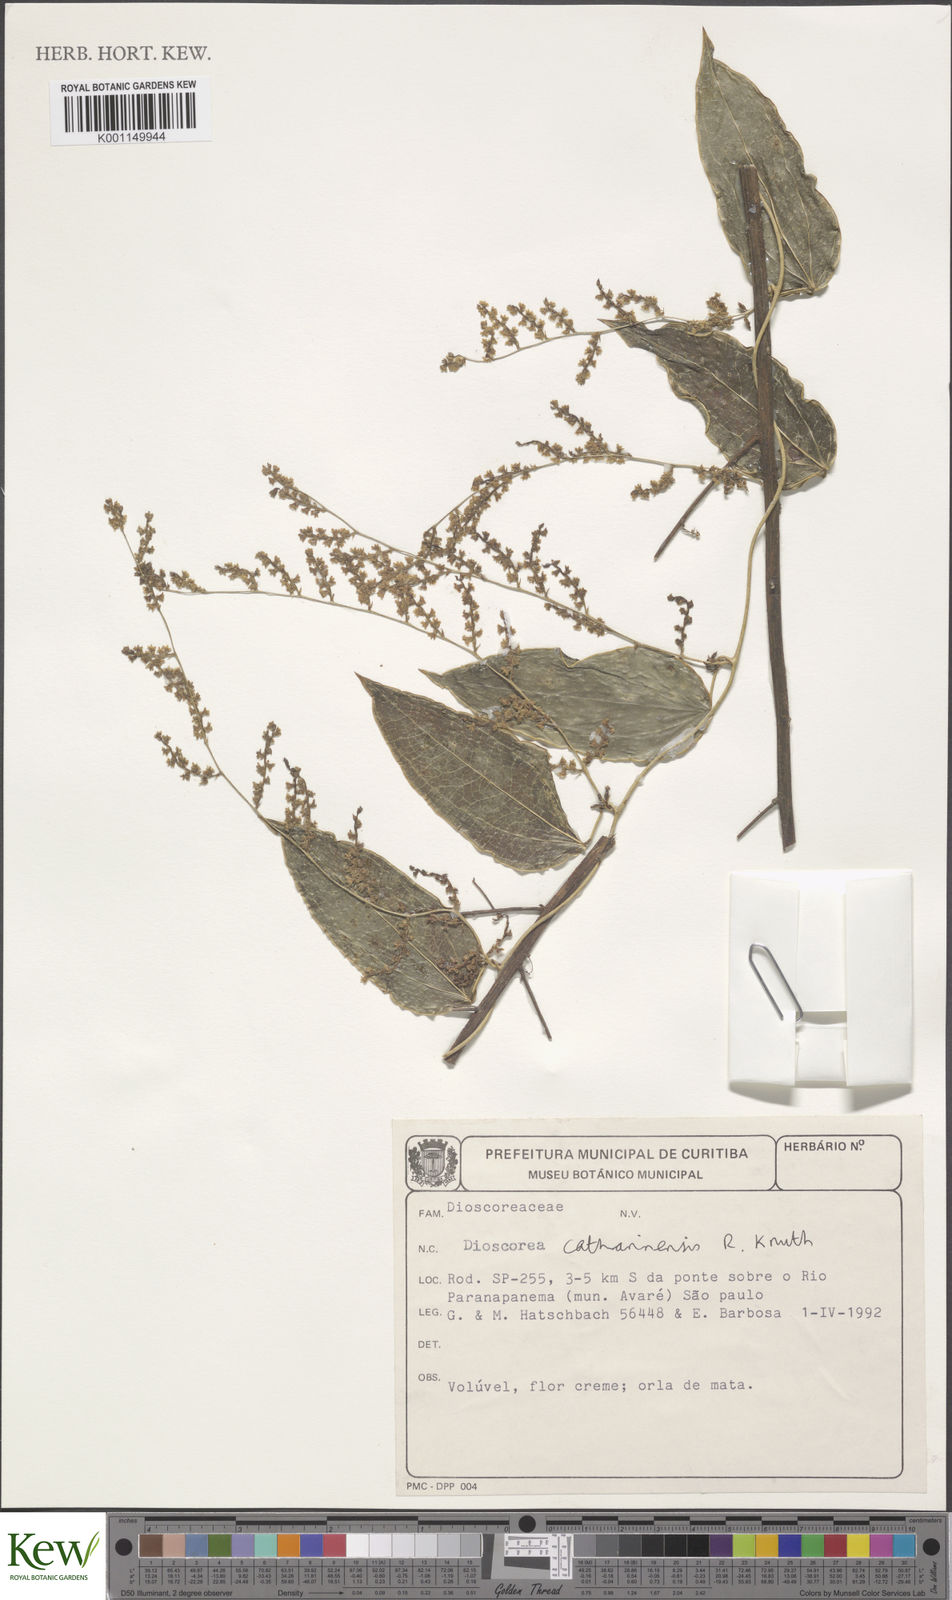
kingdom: Plantae
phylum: Tracheophyta
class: Liliopsida
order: Dioscoreales
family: Dioscoreaceae
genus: Dioscorea
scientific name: Dioscorea catharinensis
